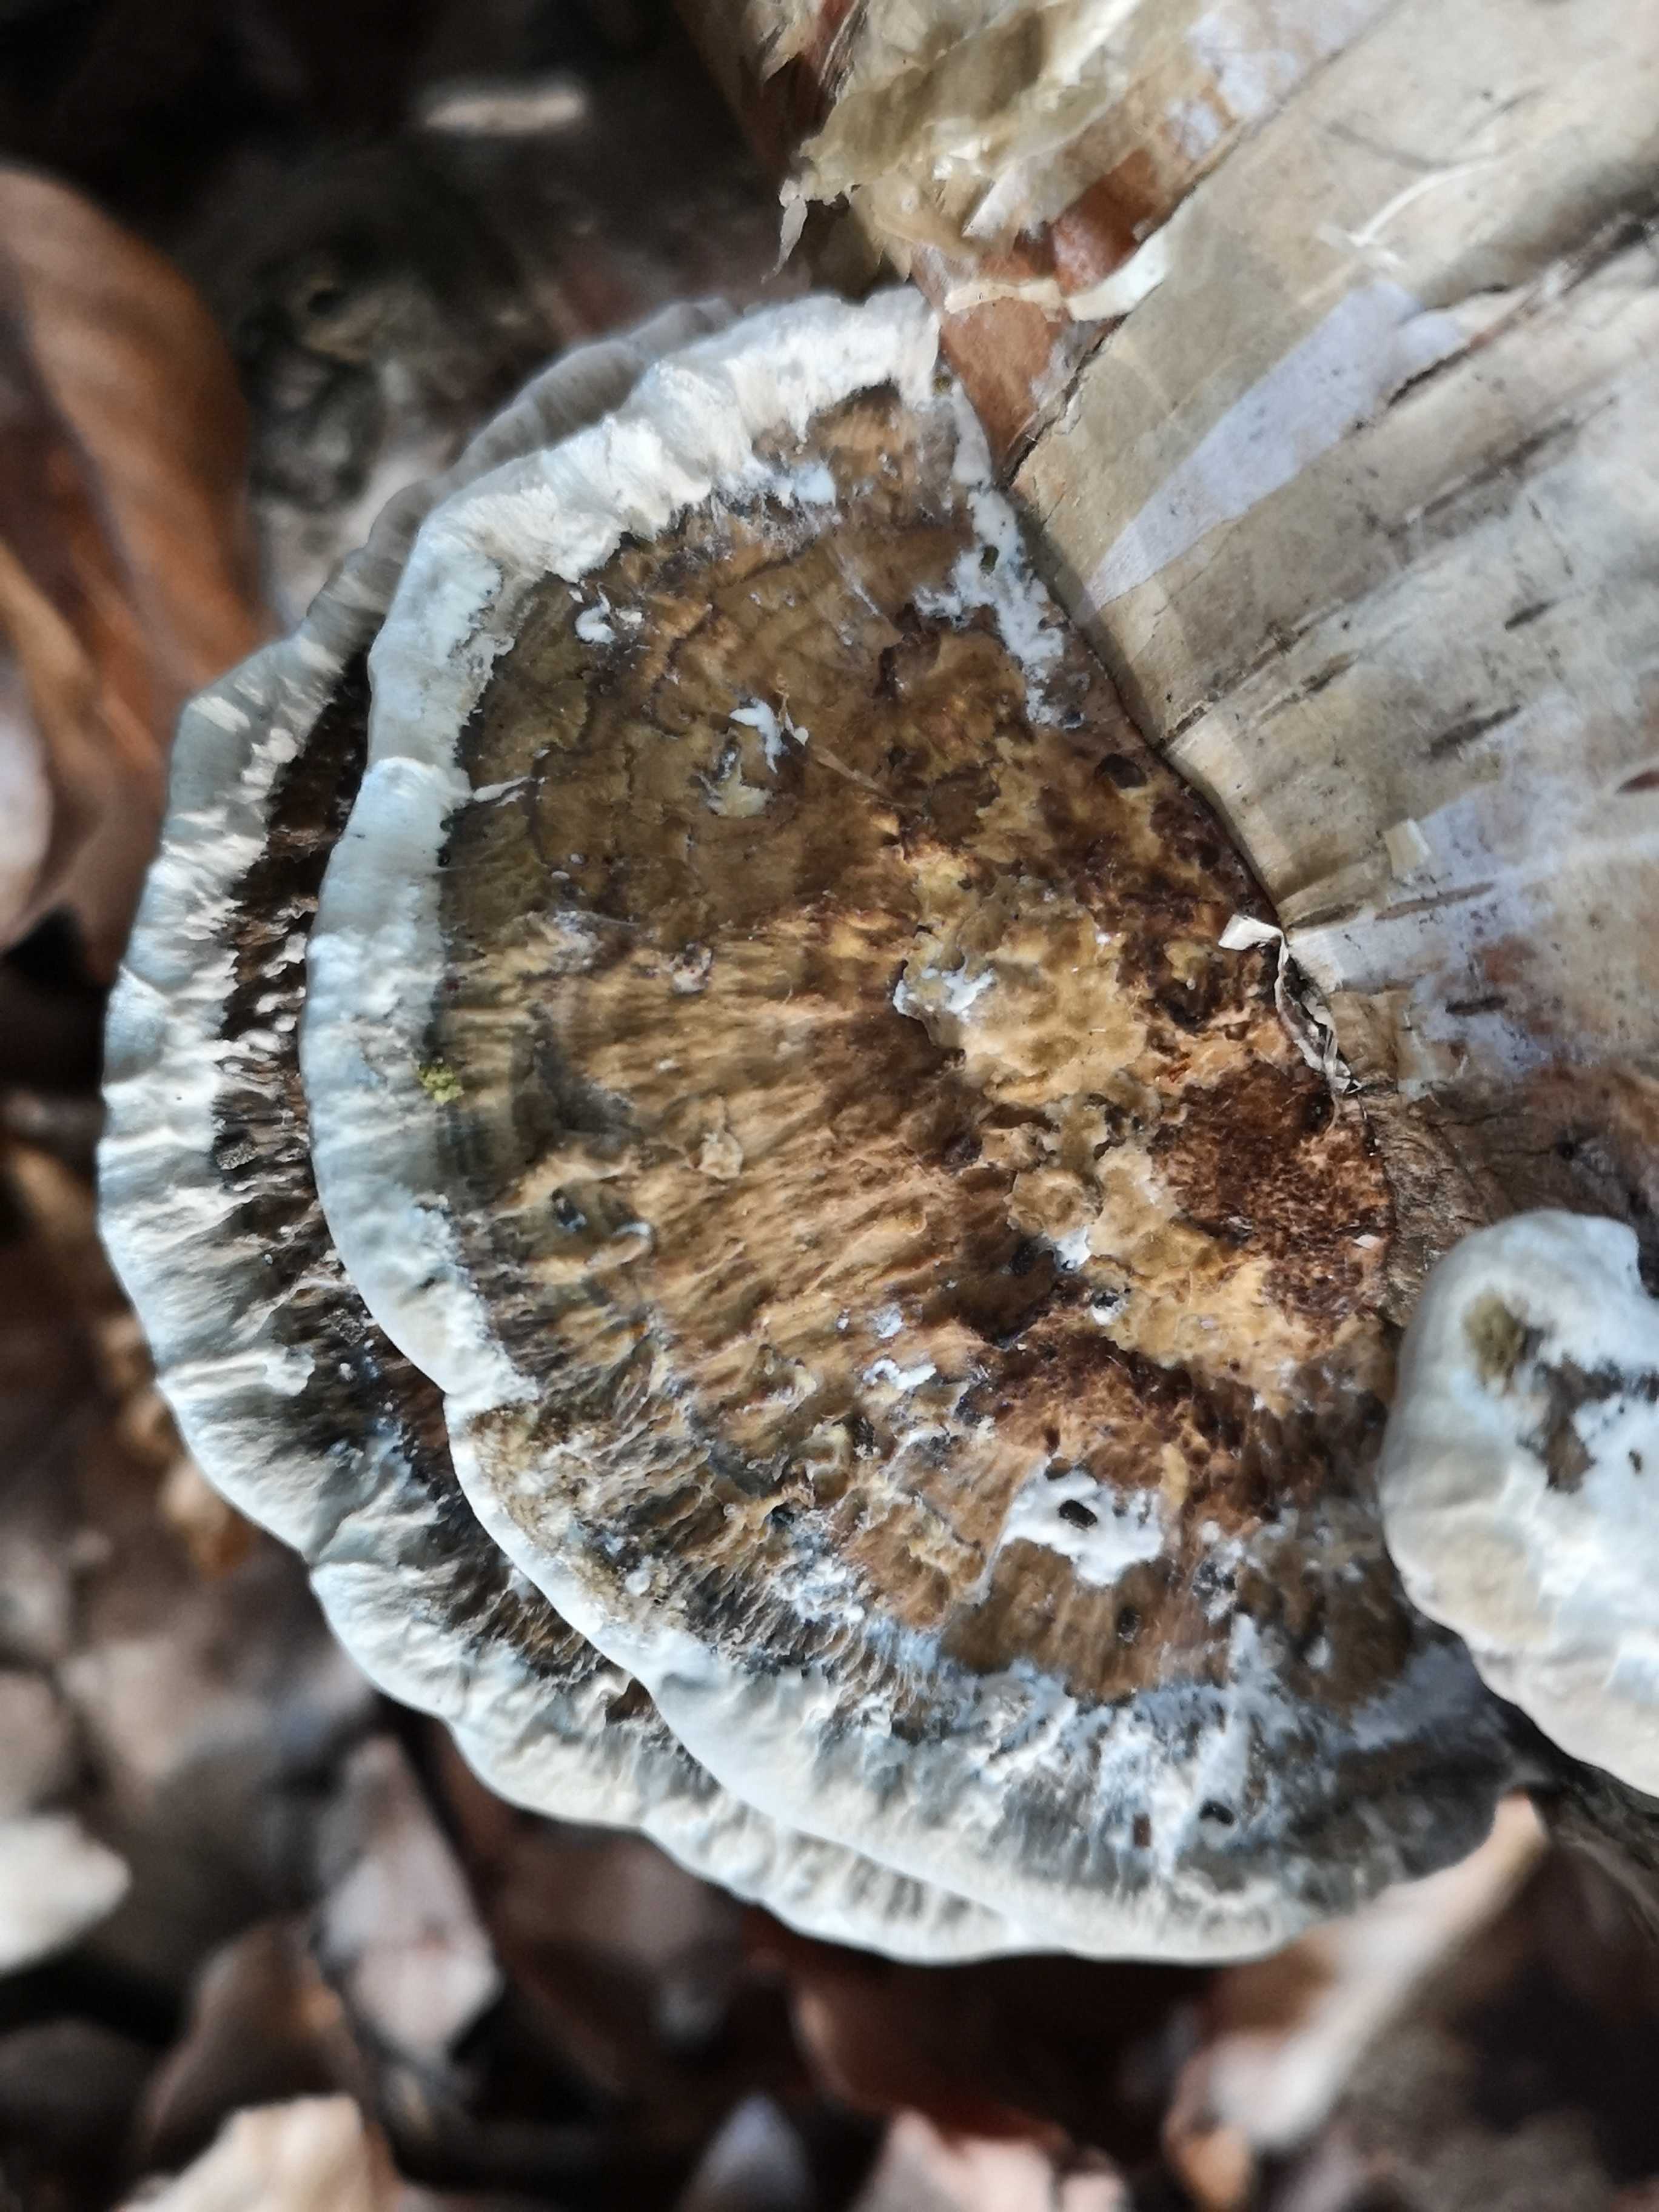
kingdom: Fungi
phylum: Basidiomycota
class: Agaricomycetes
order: Polyporales
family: Polyporaceae
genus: Daedaleopsis
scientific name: Daedaleopsis confragosa
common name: rødmende læderporesvamp
